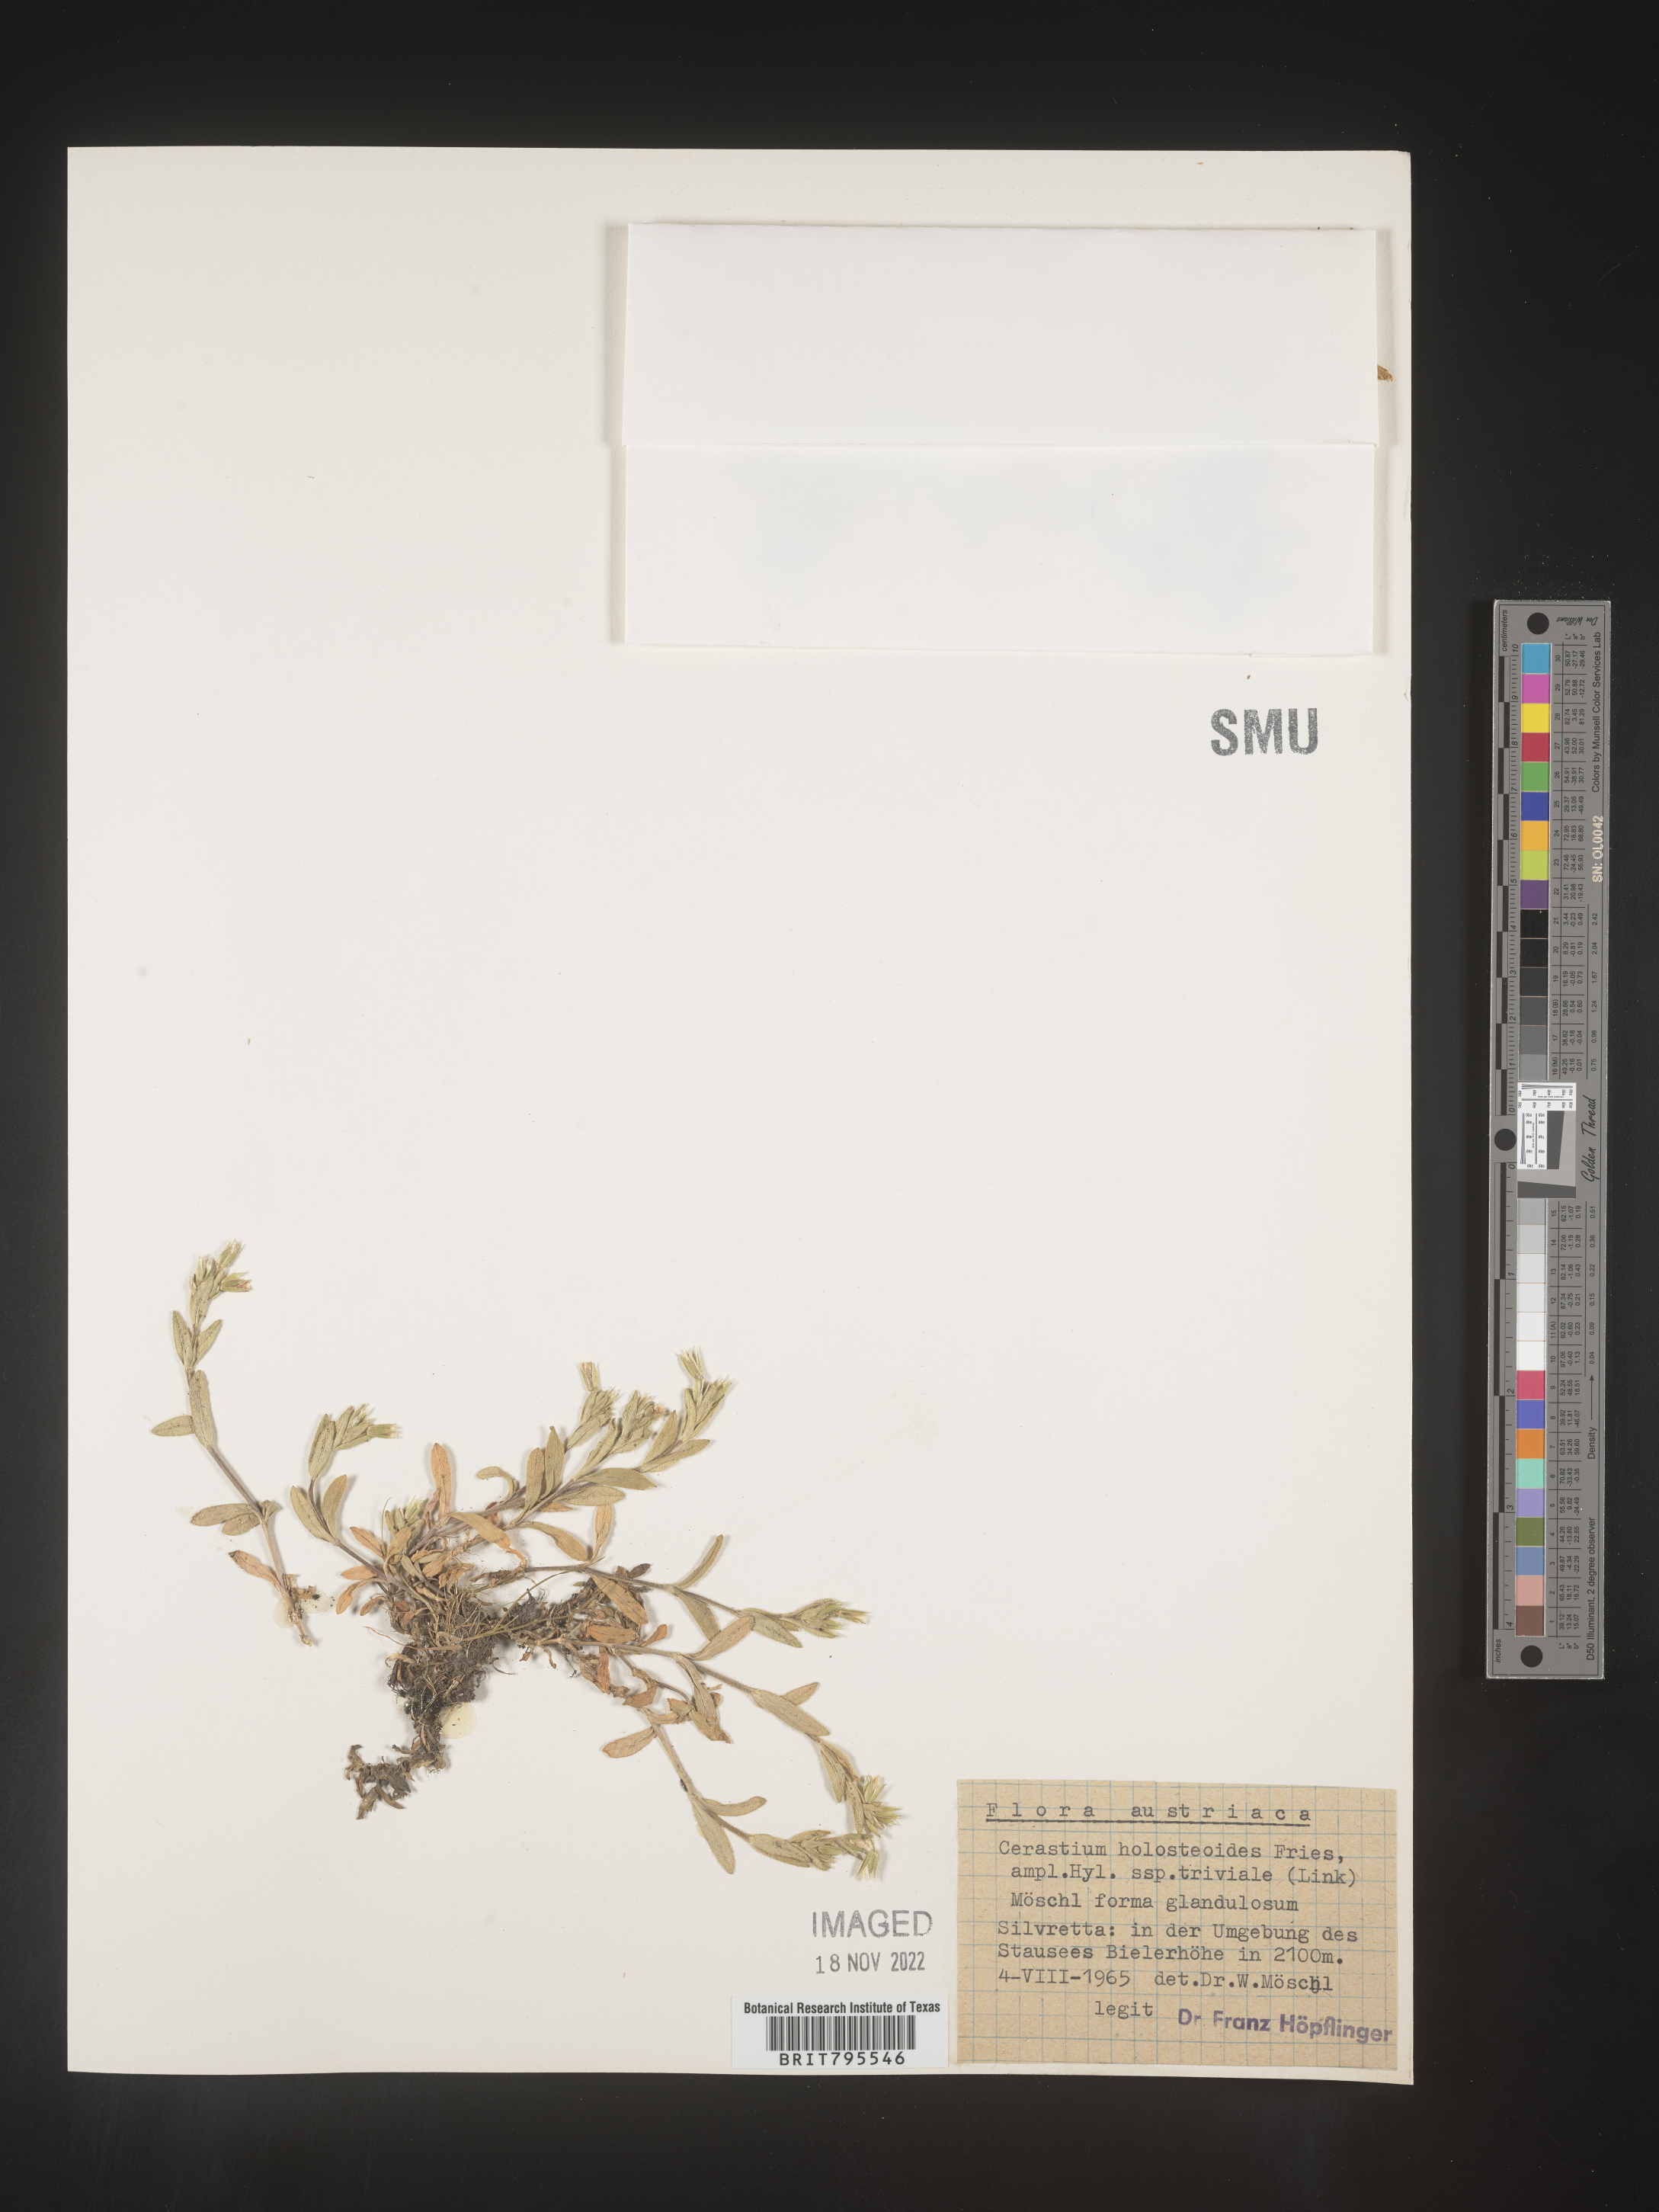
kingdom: Plantae
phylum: Tracheophyta
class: Magnoliopsida
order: Caryophyllales
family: Caryophyllaceae
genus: Cerastium
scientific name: Cerastium
